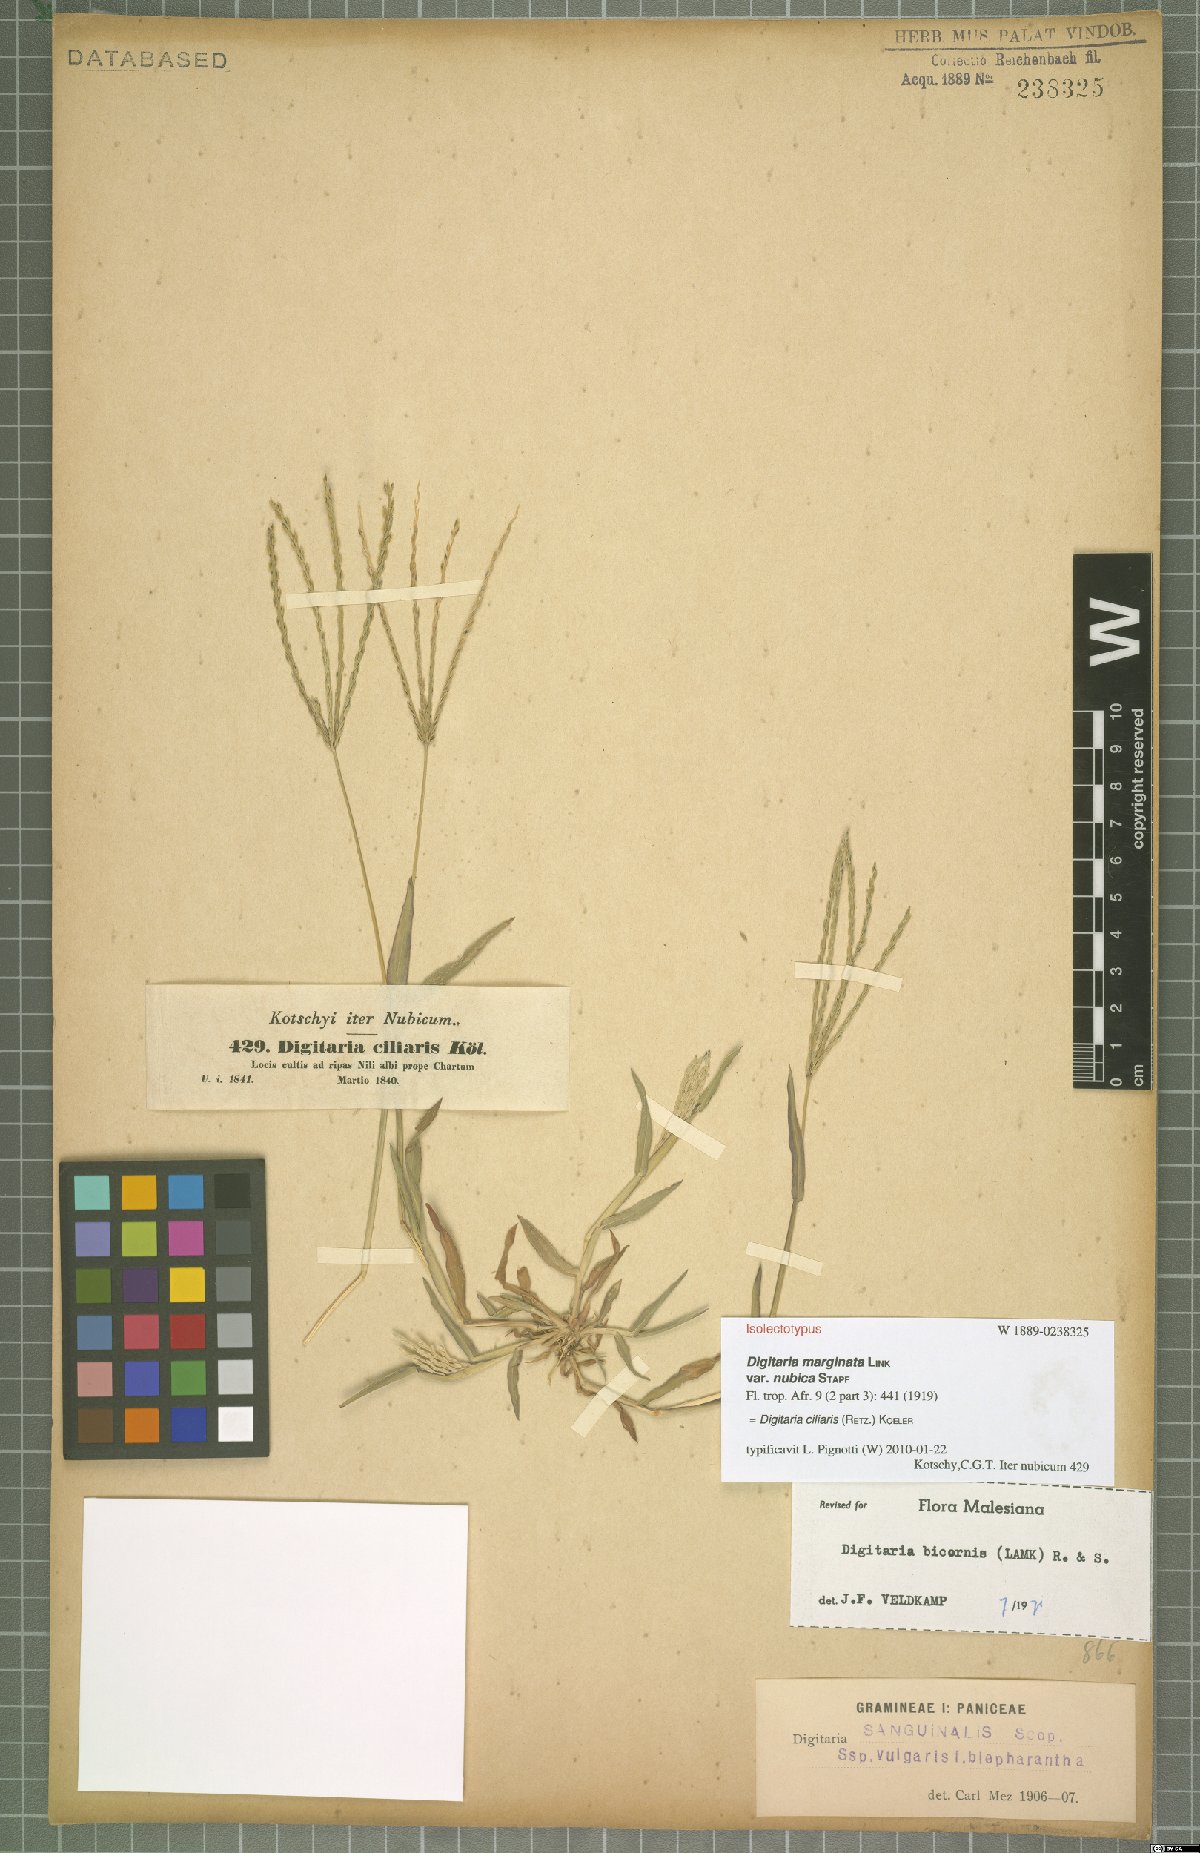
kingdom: Plantae
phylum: Tracheophyta
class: Liliopsida
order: Poales
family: Poaceae
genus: Digitaria
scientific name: Digitaria ciliaris
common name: Tropical finger-grass
